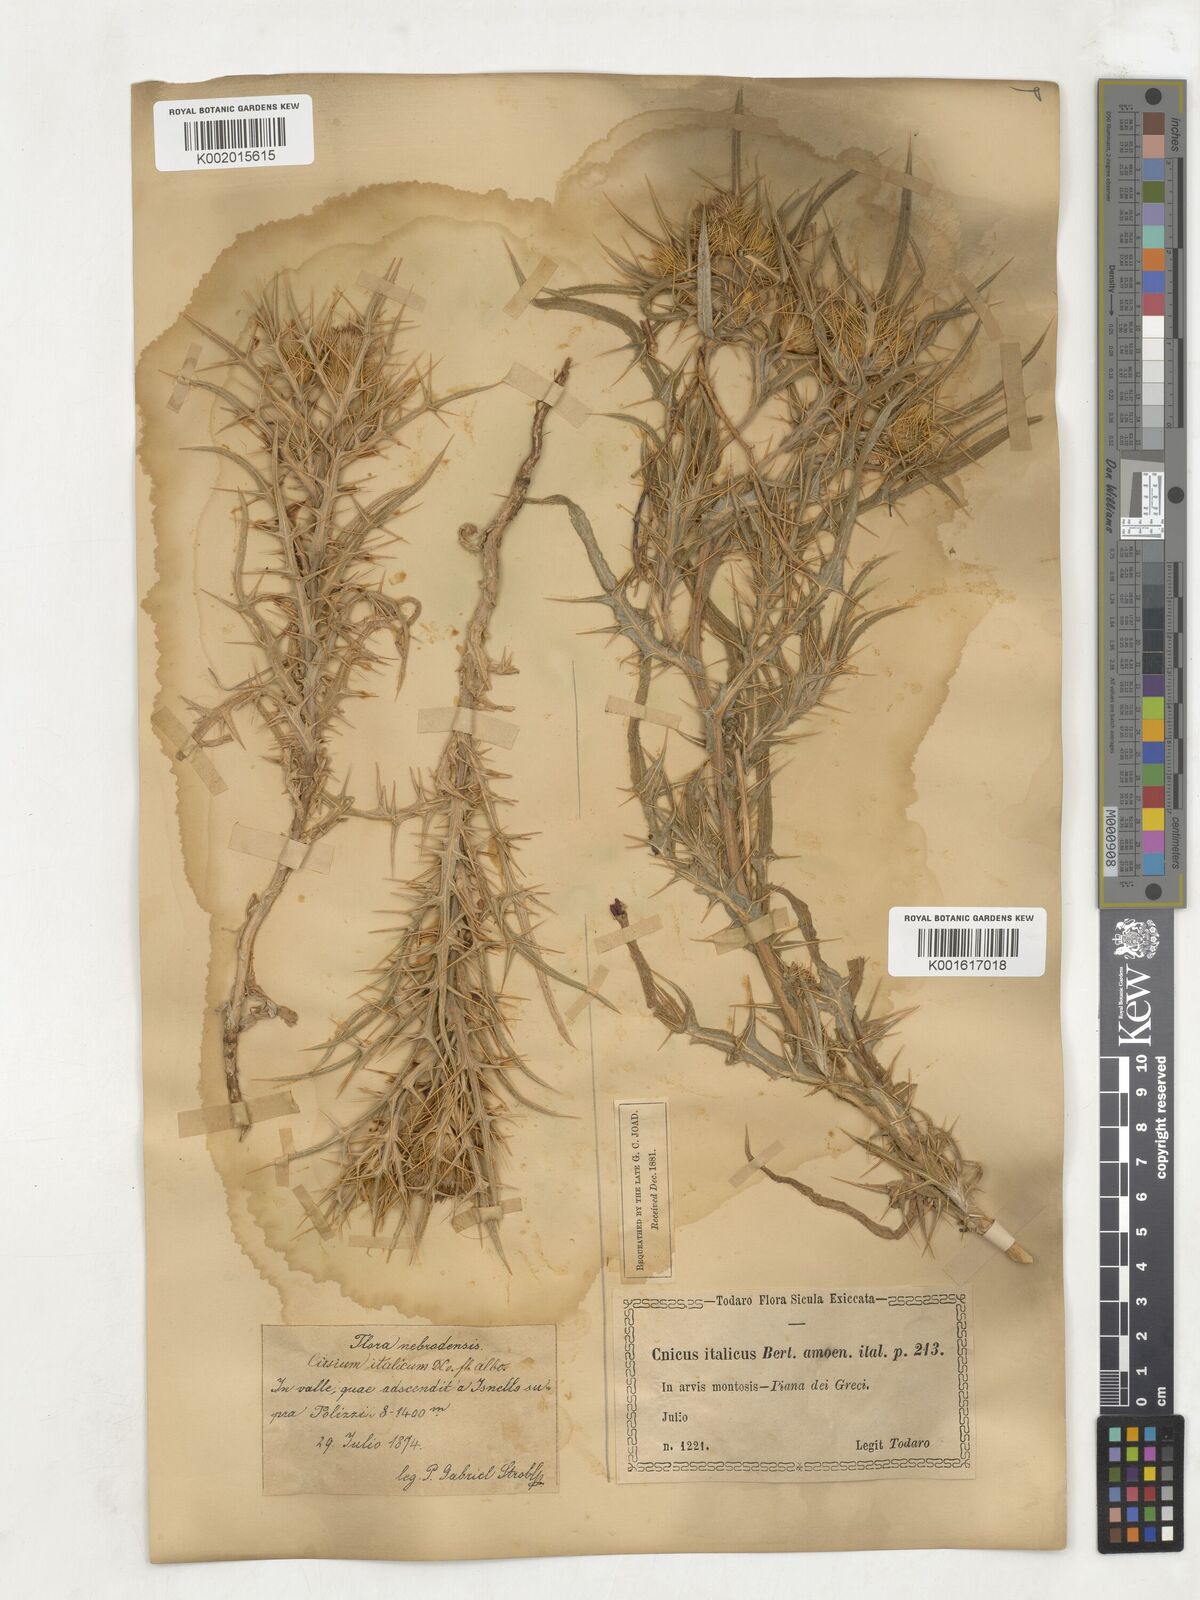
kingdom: Plantae
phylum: Tracheophyta
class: Magnoliopsida
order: Asterales
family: Asteraceae
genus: Epitrachys
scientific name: Epitrachys italica
